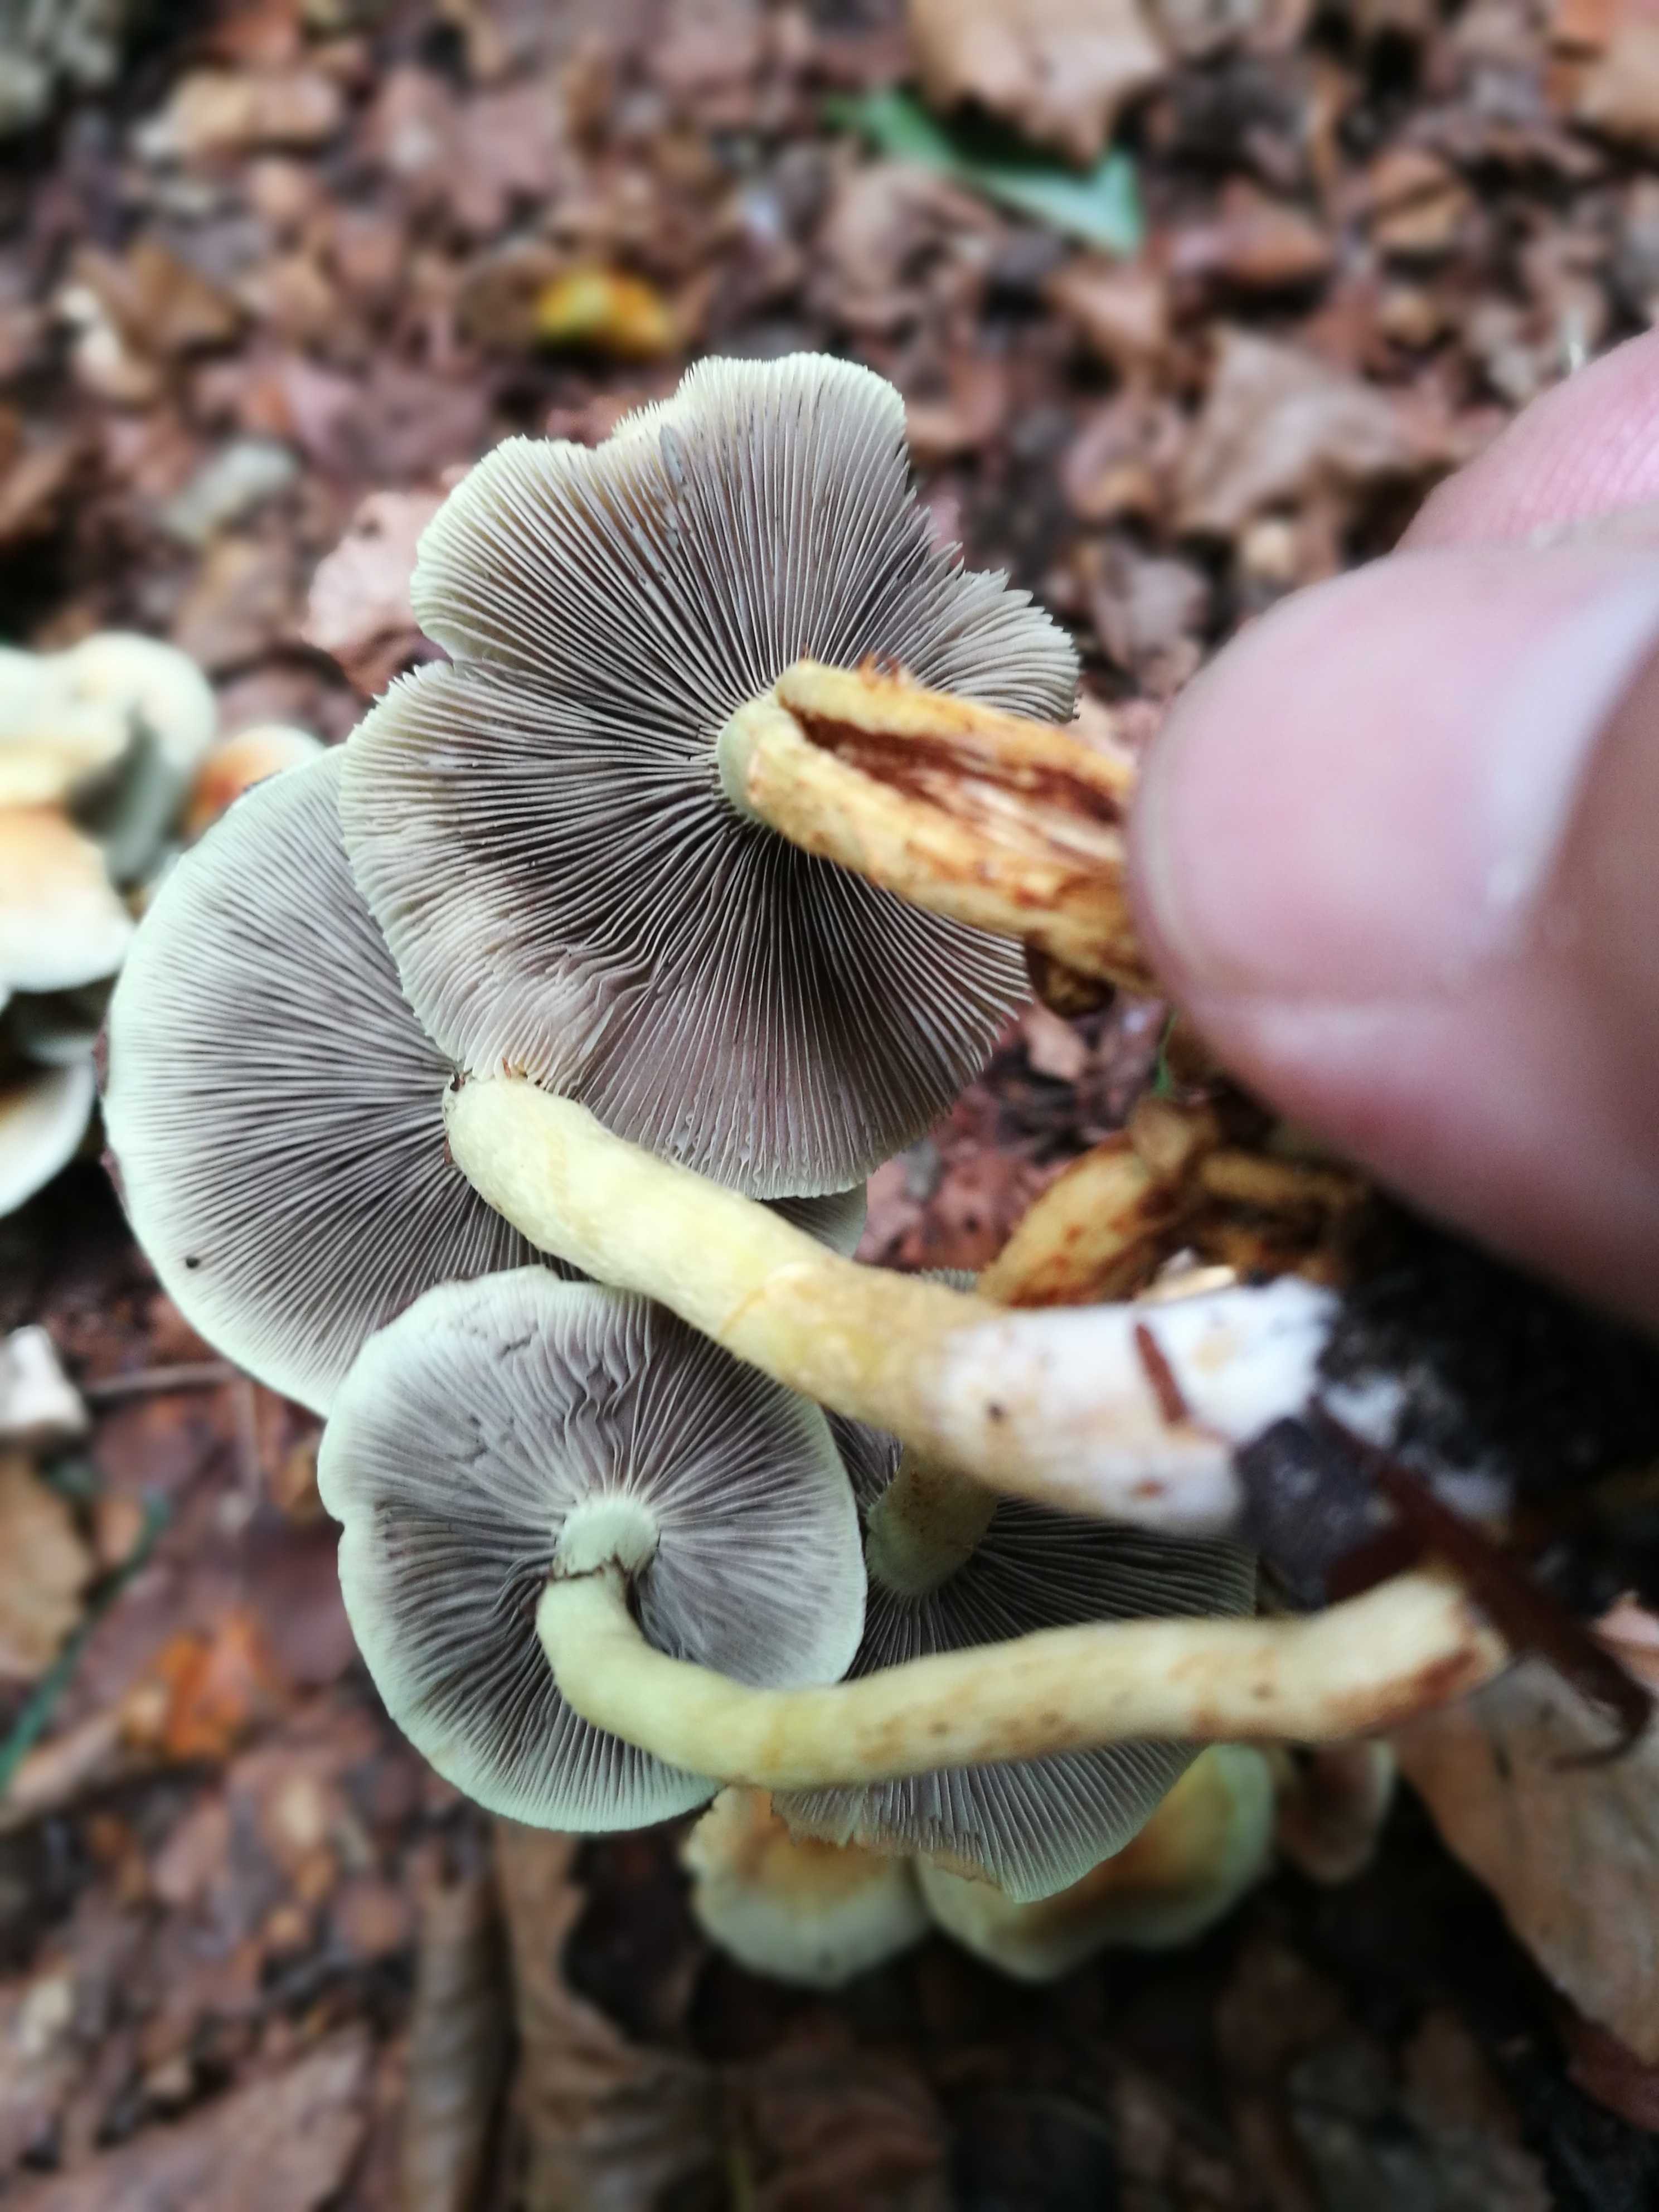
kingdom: Fungi
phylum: Basidiomycota
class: Agaricomycetes
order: Agaricales
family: Strophariaceae
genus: Hypholoma
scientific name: Hypholoma fasciculare
